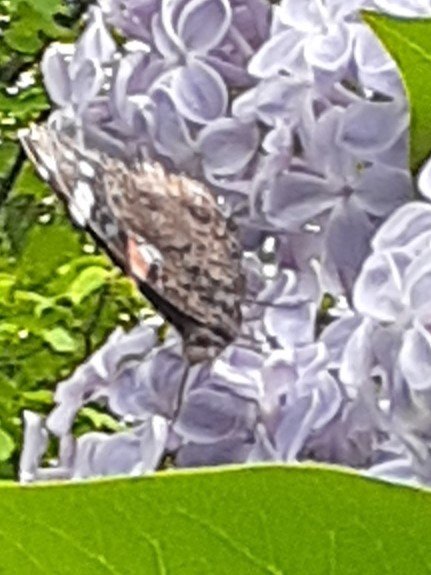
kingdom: Animalia
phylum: Arthropoda
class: Insecta
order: Lepidoptera
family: Nymphalidae
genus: Vanessa
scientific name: Vanessa atalanta
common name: Red Admiral
